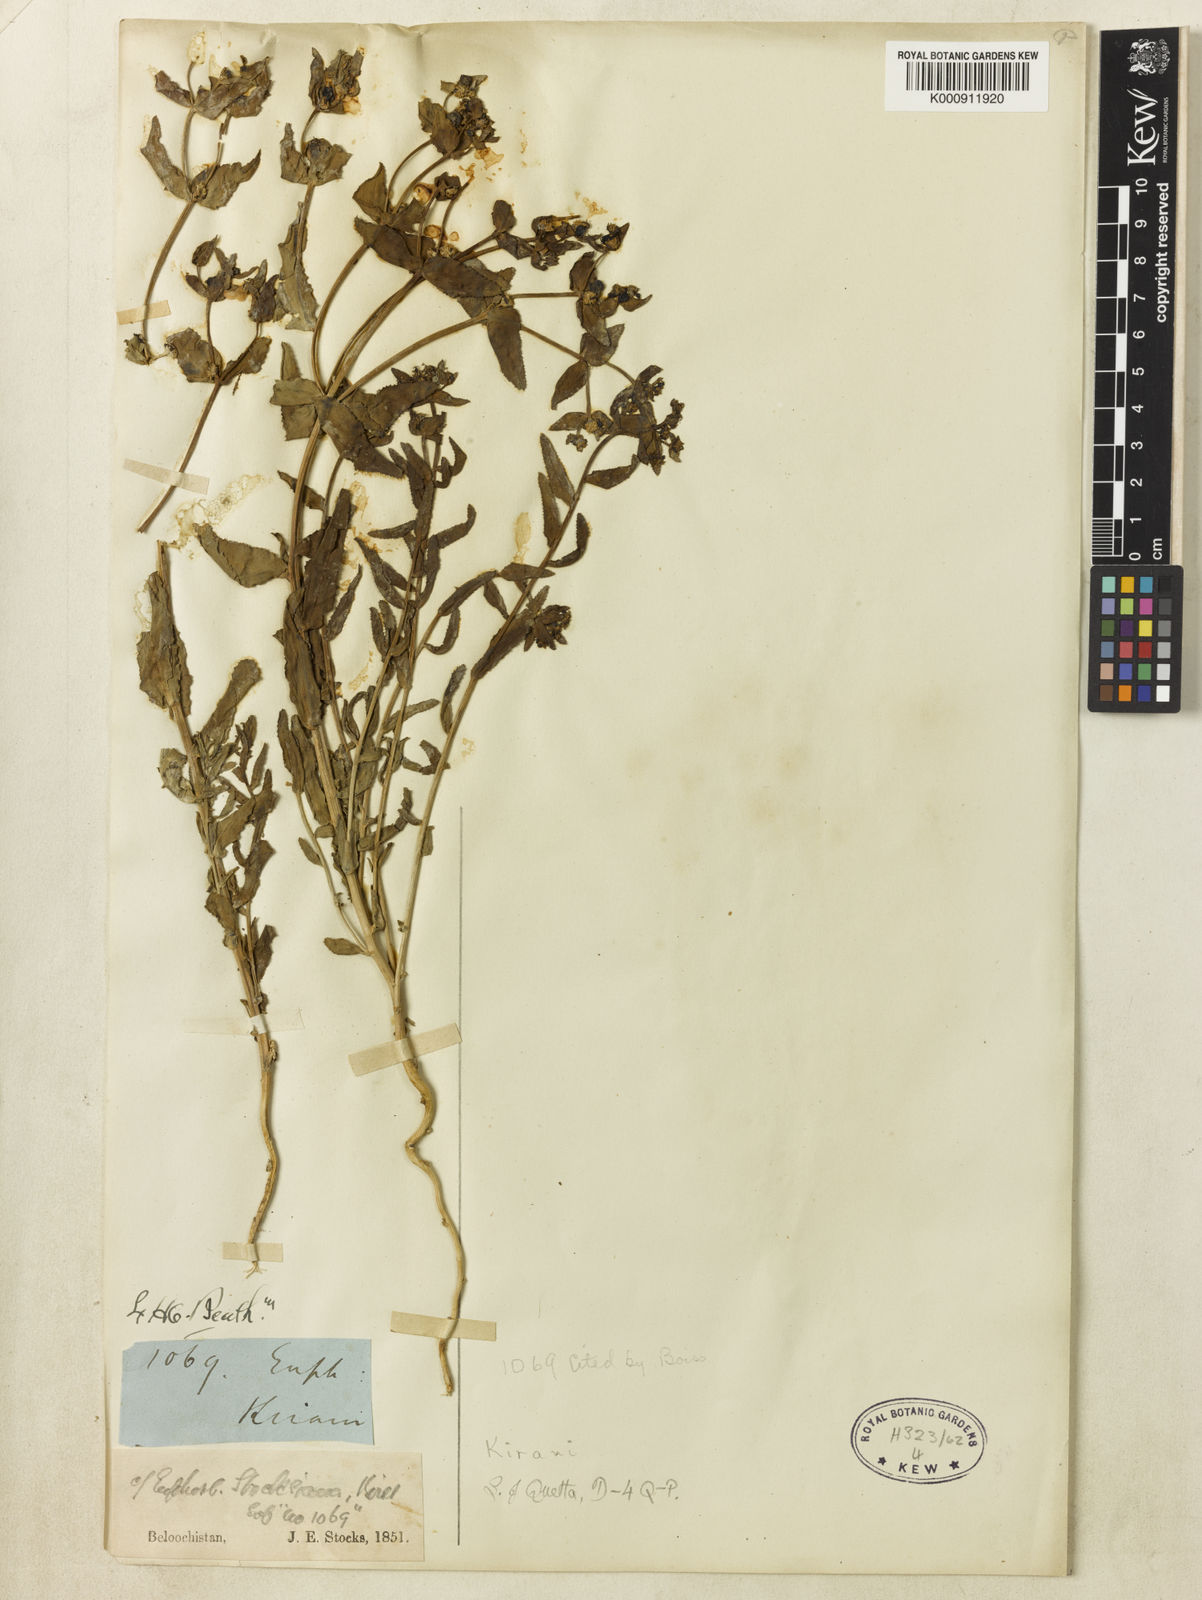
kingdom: Plantae
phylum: Tracheophyta
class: Magnoliopsida
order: Malpighiales
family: Euphorbiaceae
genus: Euphorbia
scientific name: Euphorbia caeladenia
